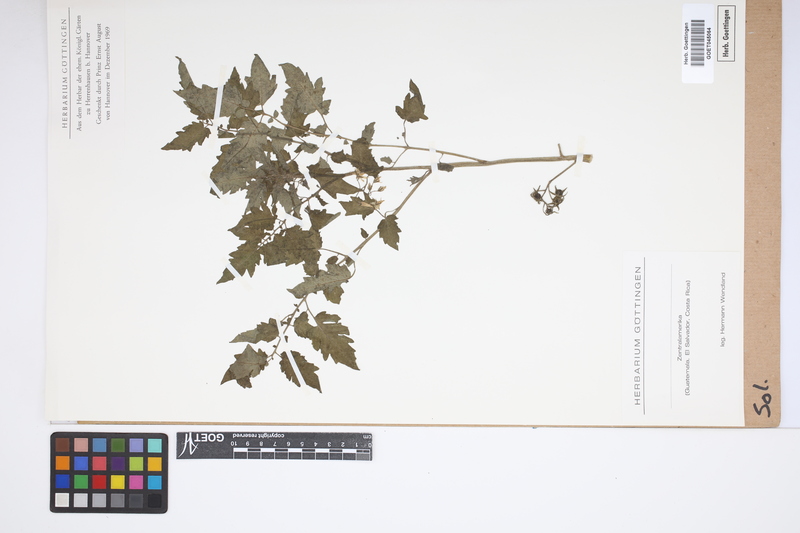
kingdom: Plantae
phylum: Tracheophyta
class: Magnoliopsida
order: Solanales
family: Solanaceae
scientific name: Solanaceae
